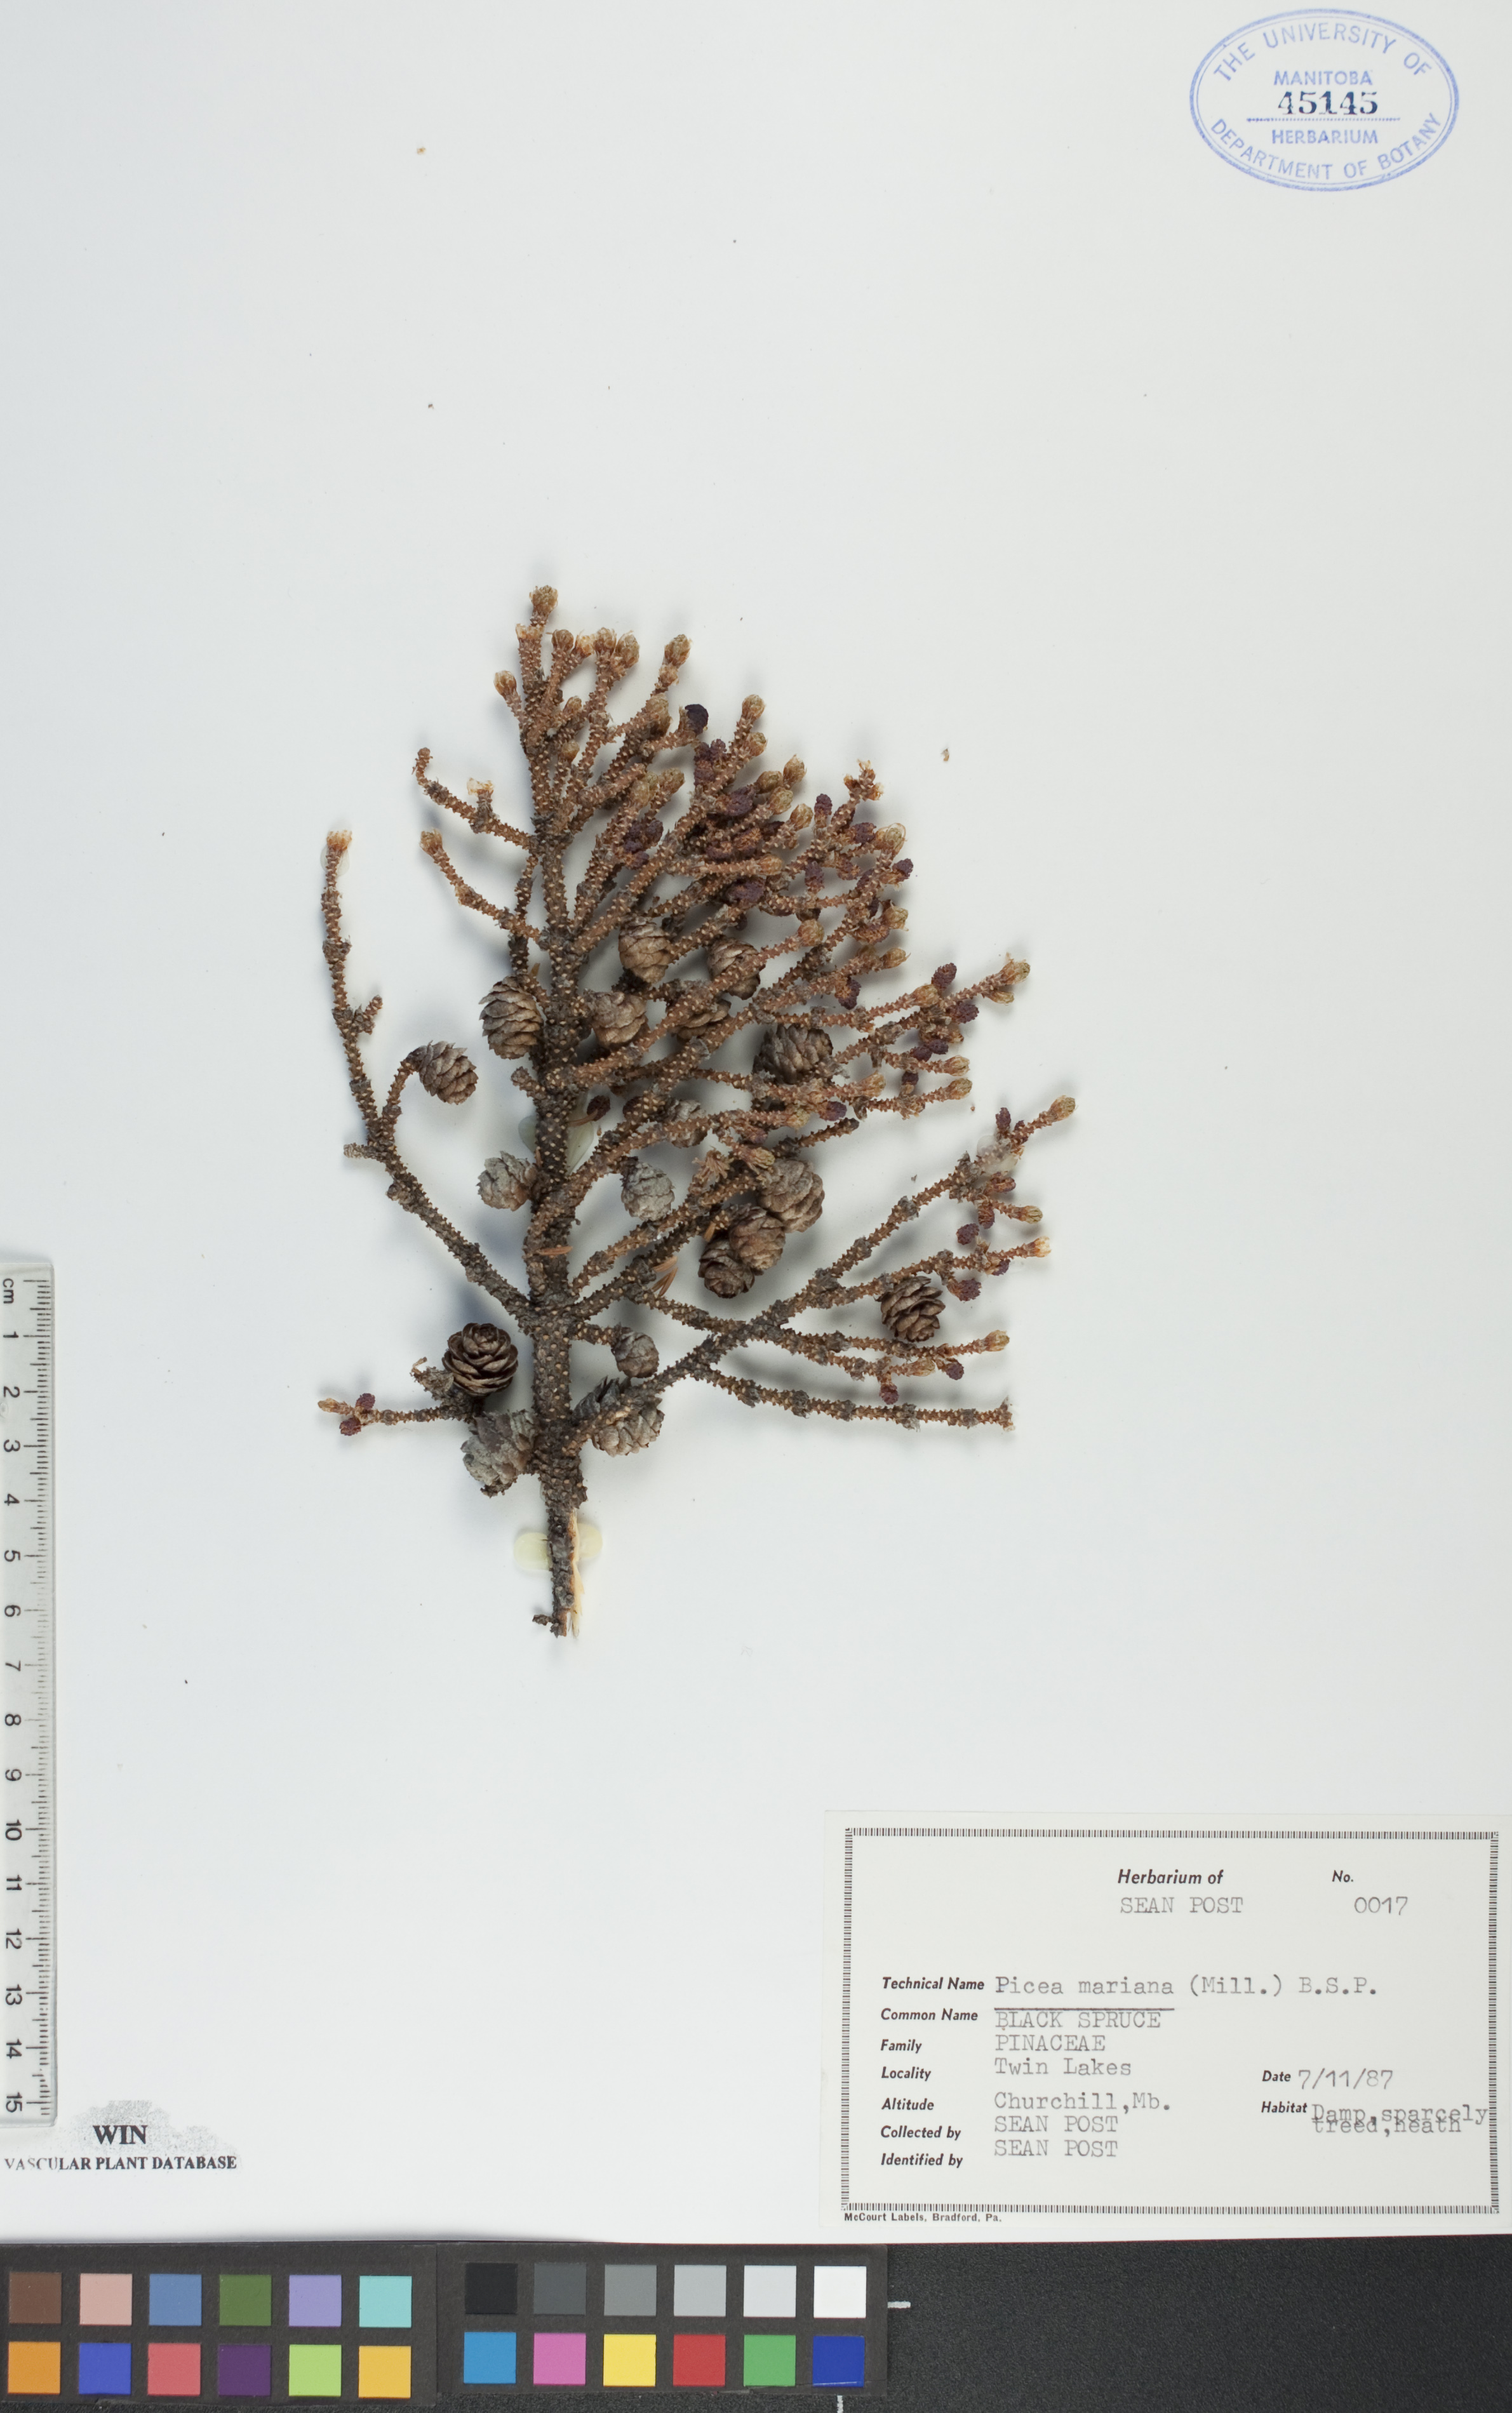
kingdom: Plantae
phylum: Tracheophyta
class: Pinopsida
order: Pinales
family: Pinaceae
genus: Picea
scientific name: Picea mariana
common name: Black spruce
